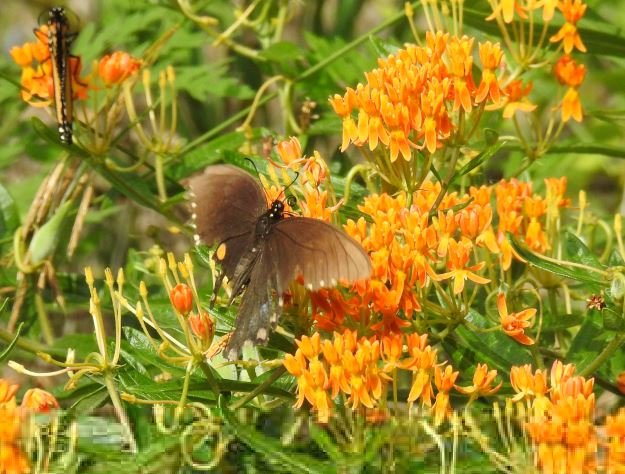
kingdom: Animalia
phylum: Arthropoda
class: Insecta
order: Lepidoptera
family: Papilionidae
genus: Pterourus
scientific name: Pterourus troilus
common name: Spicebush Swallowtail
